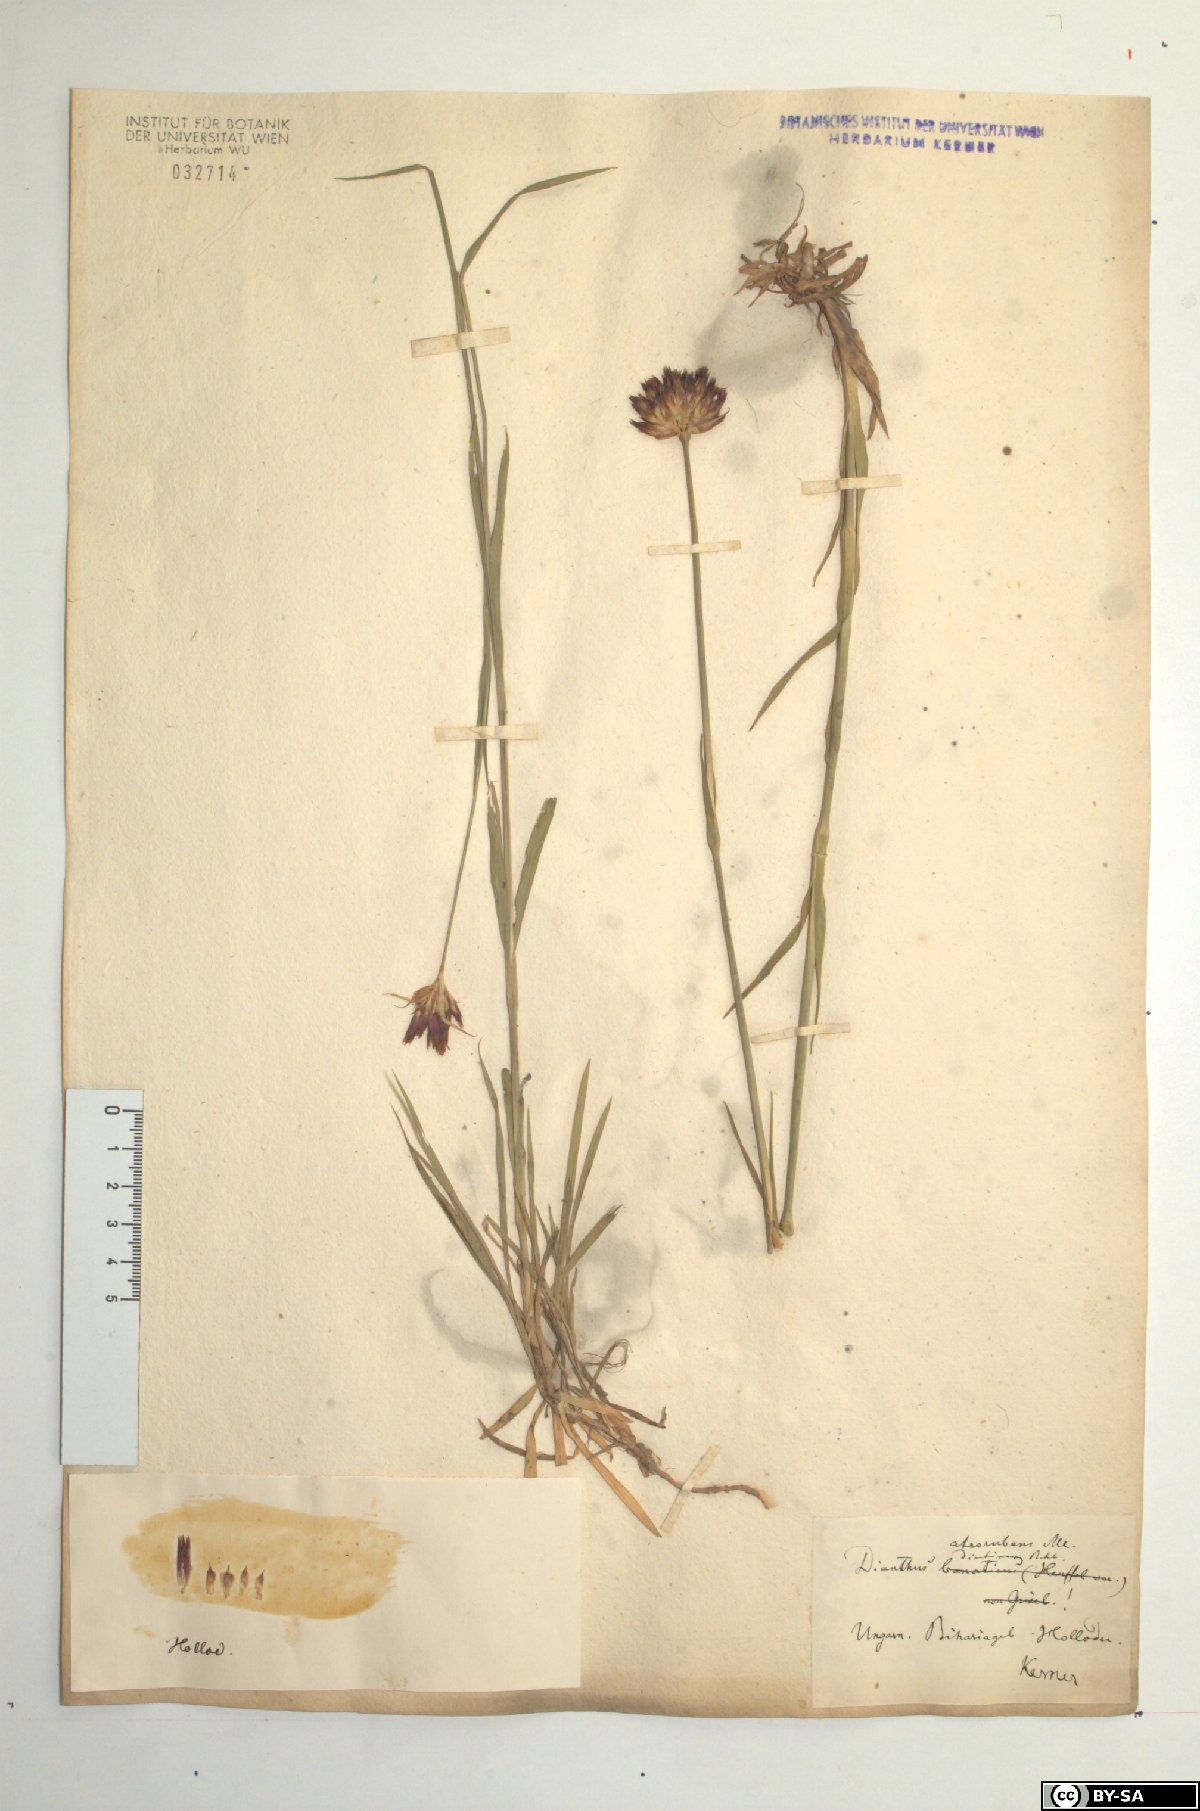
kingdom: Plantae
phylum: Tracheophyta
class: Magnoliopsida
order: Caryophyllales
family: Caryophyllaceae
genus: Dianthus
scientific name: Dianthus carthusianorum
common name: Carthusian pink
